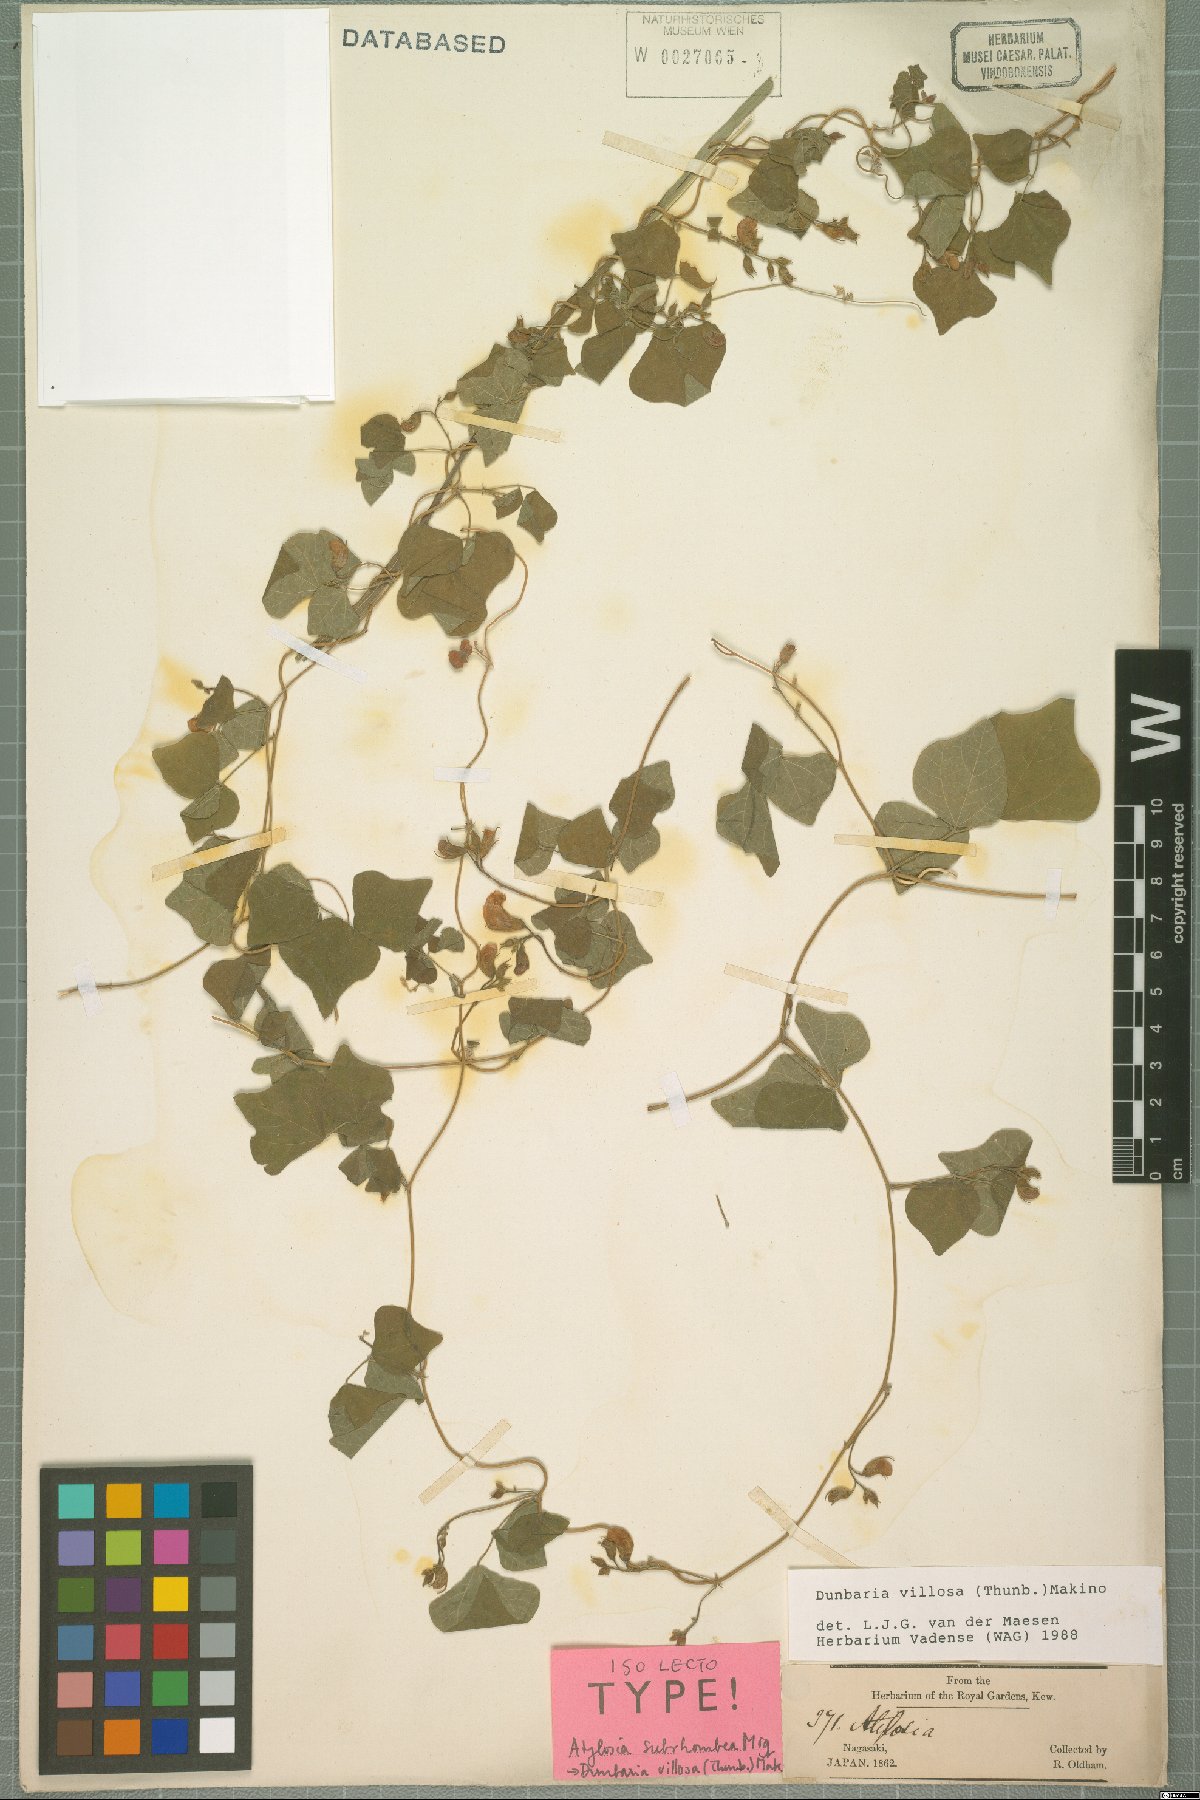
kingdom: Plantae
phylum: Tracheophyta
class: Magnoliopsida
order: Fabales
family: Fabaceae
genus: Dunbaria
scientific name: Dunbaria villosa
